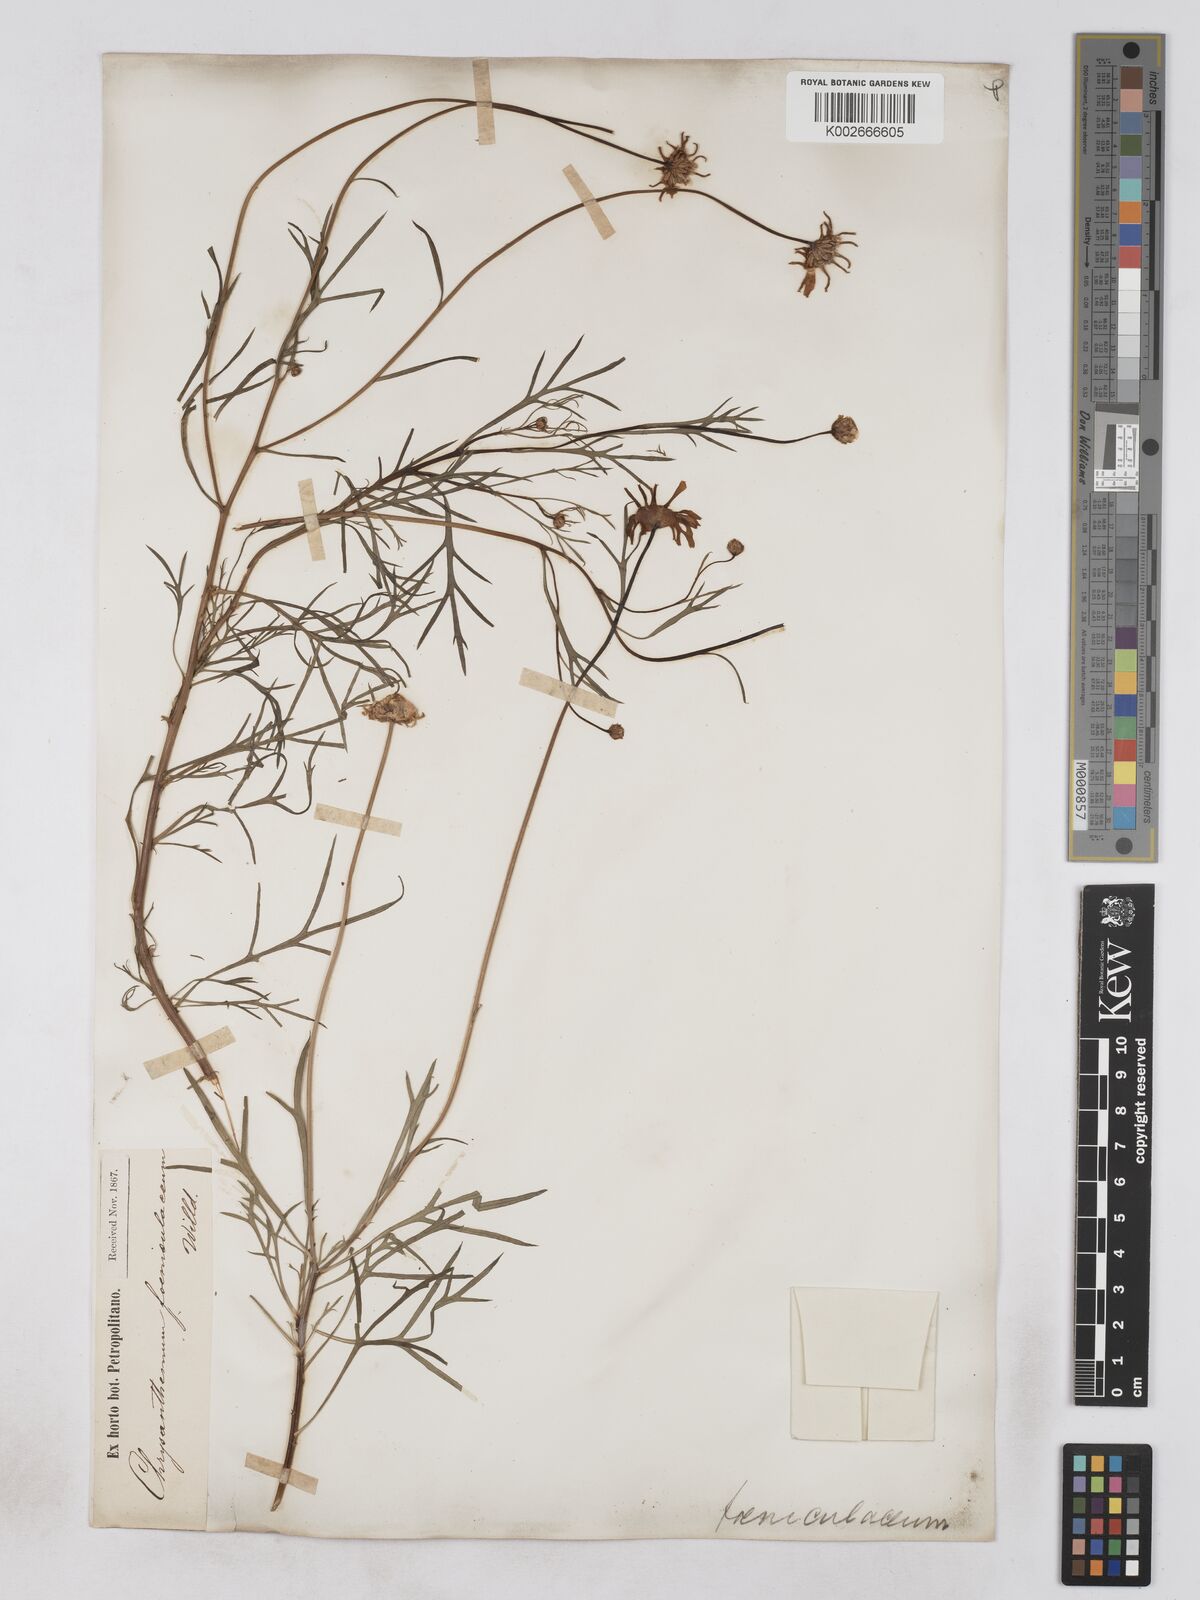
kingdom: Plantae
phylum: Tracheophyta
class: Magnoliopsida
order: Asterales
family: Asteraceae
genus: Argyranthemum
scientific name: Argyranthemum gracile
